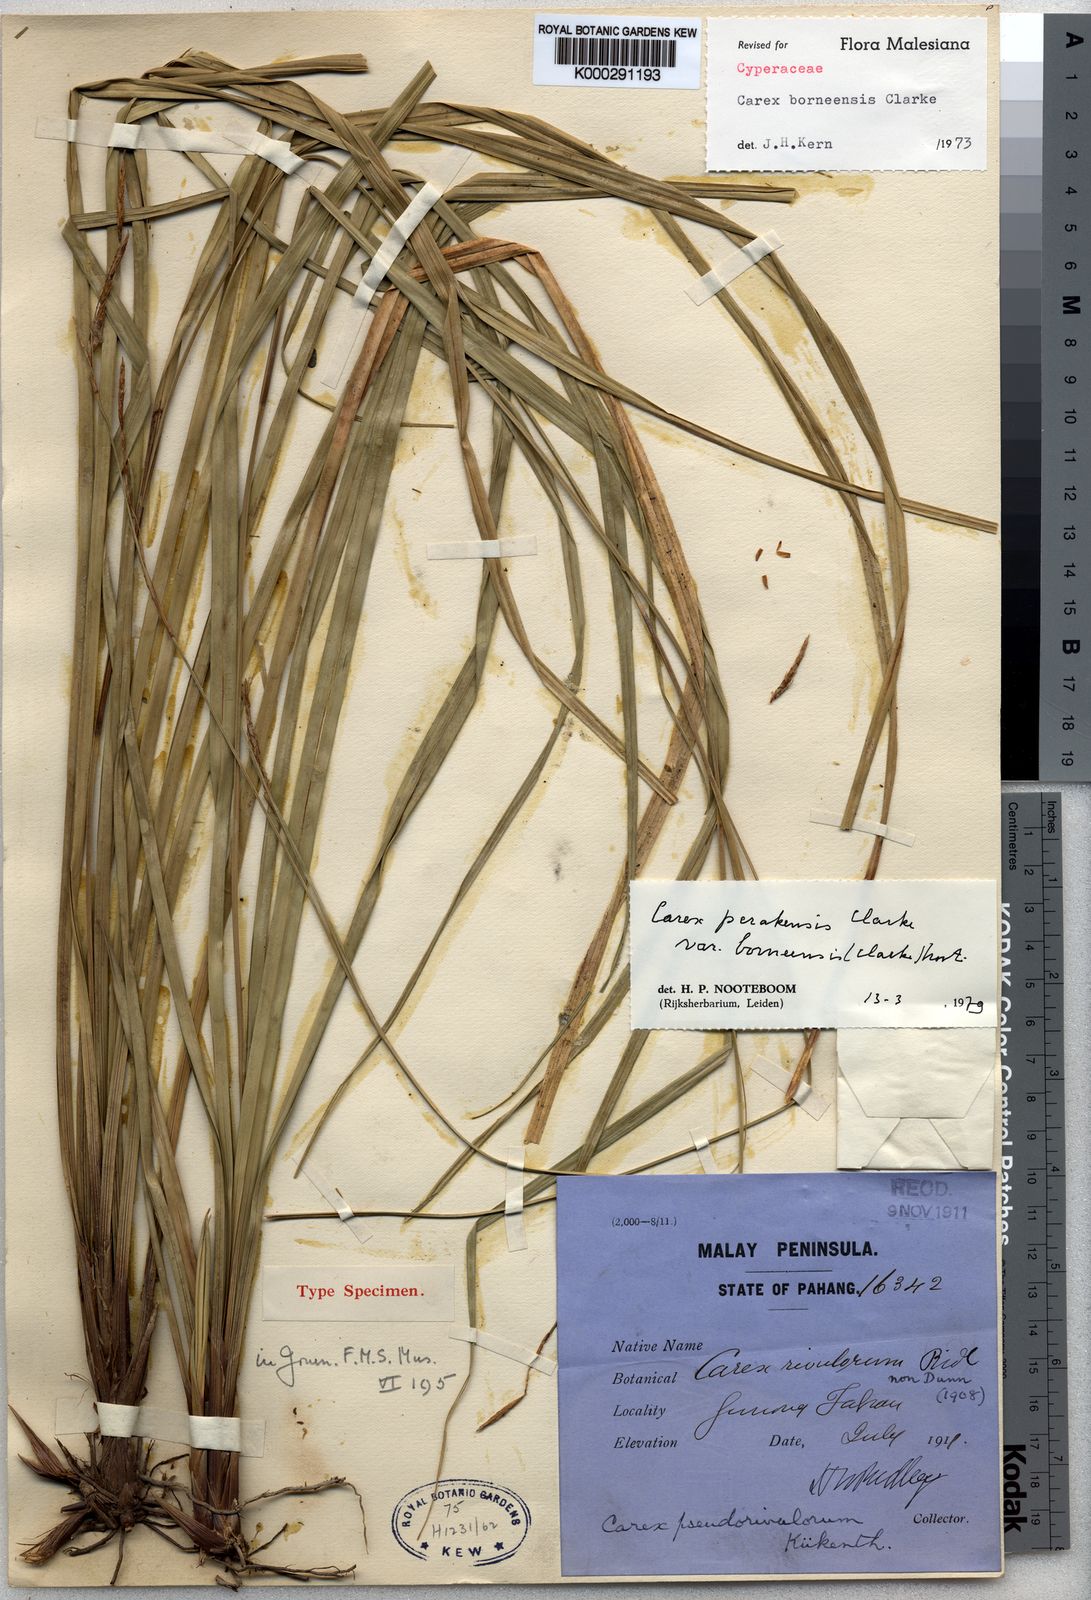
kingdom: Plantae
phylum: Tracheophyta
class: Liliopsida
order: Poales
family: Cyperaceae
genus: Carex
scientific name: Carex perakensis
